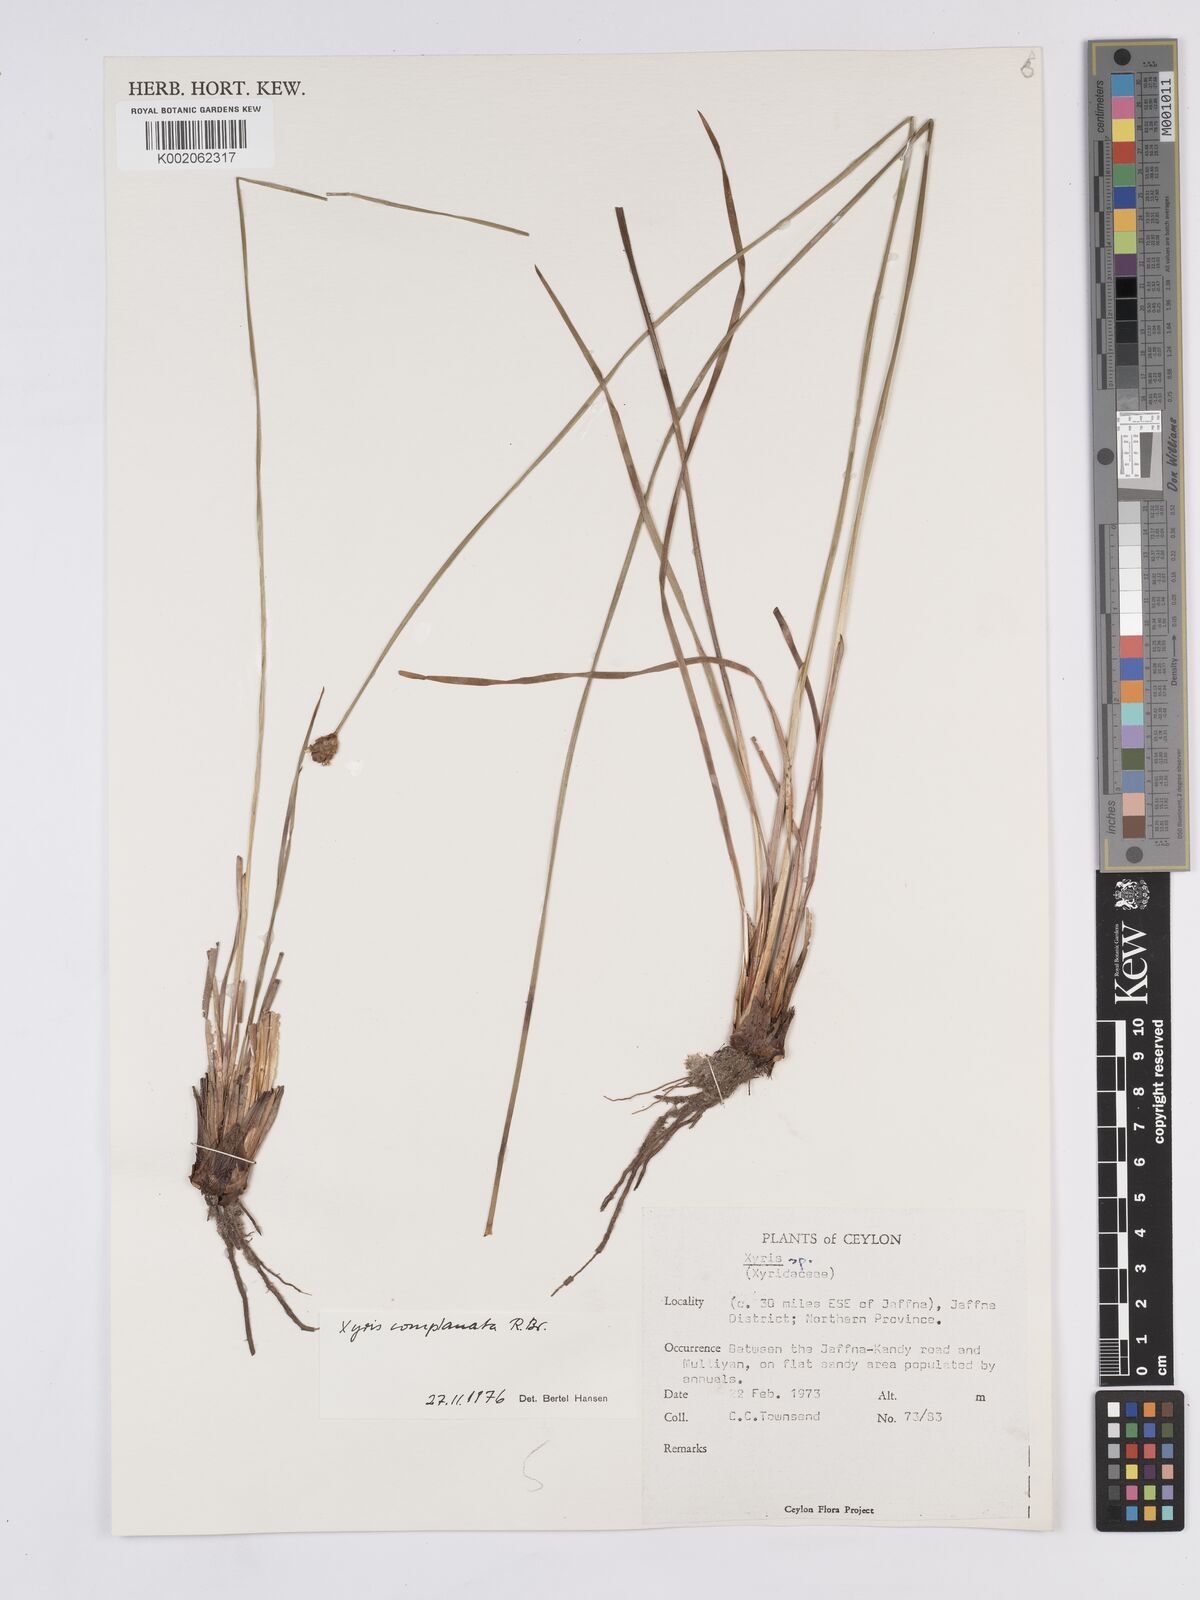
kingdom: Plantae
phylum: Tracheophyta
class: Liliopsida
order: Poales
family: Xyridaceae
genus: Xyris
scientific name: Xyris complanata
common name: Hawai'i yelloweyed grass
